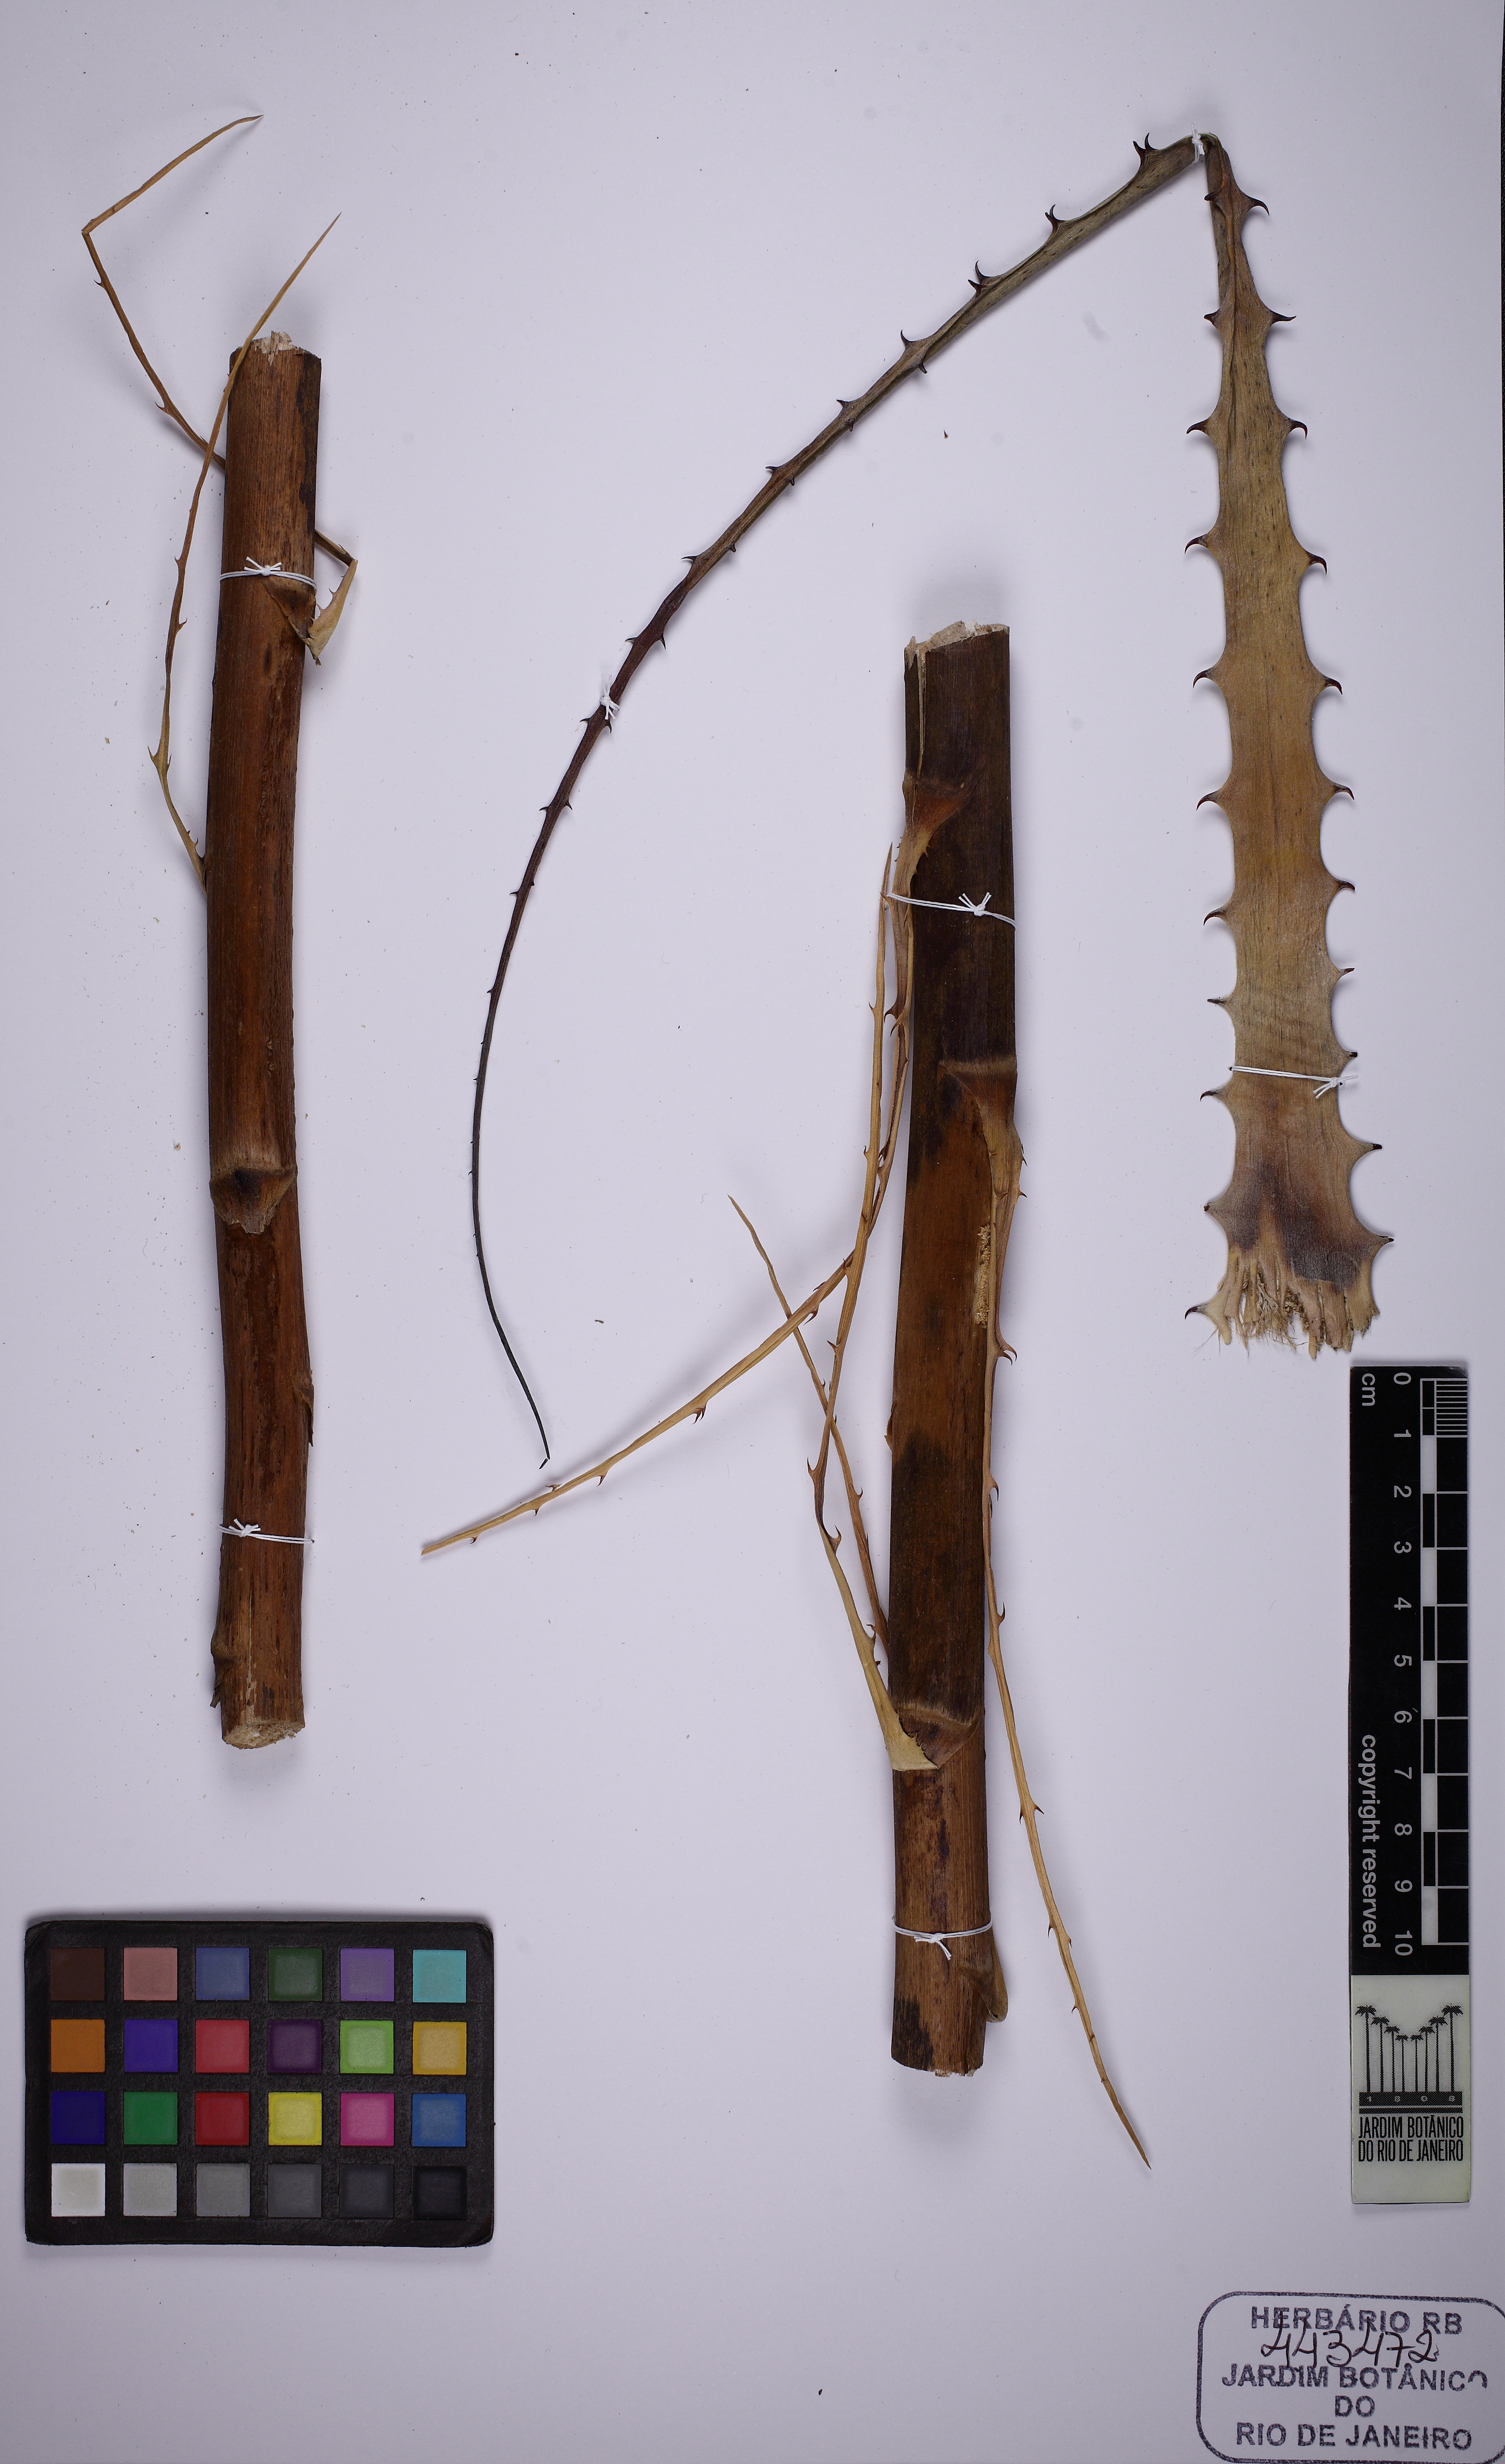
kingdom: Plantae
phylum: Tracheophyta
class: Liliopsida
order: Poales
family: Bromeliaceae
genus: Encholirium
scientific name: Encholirium brachypodum
